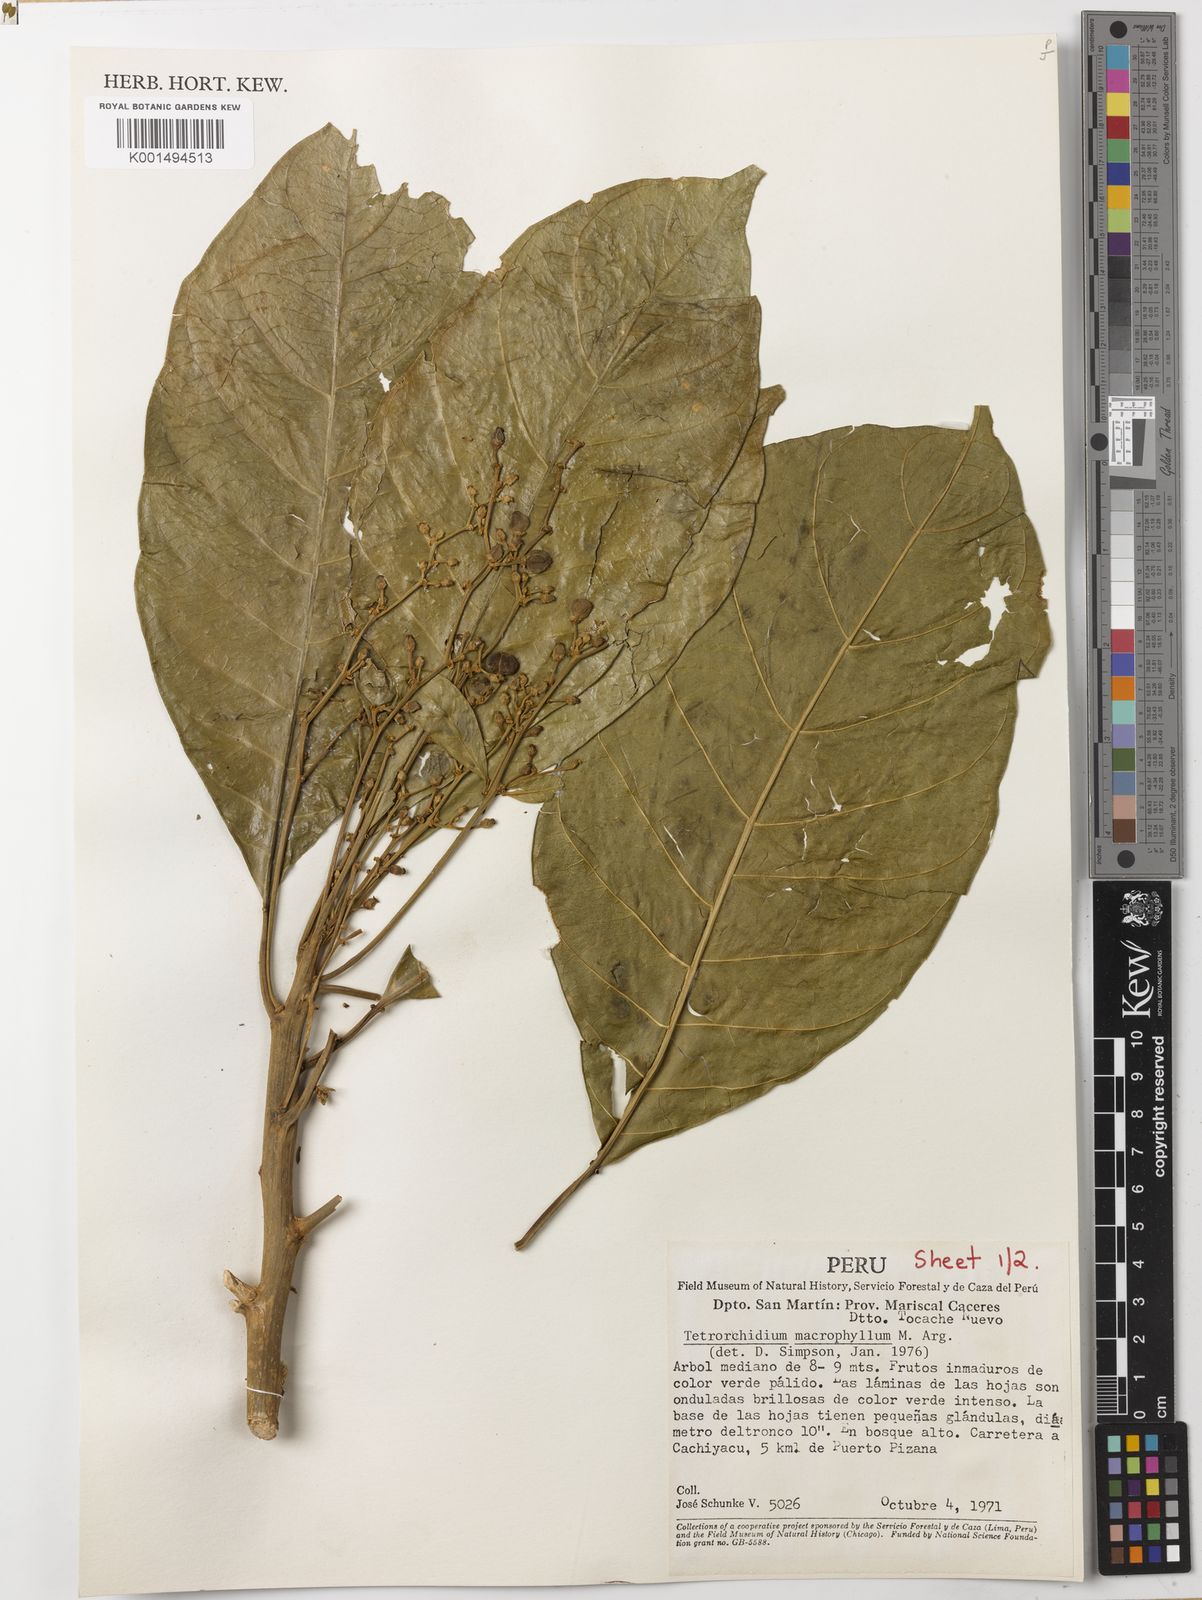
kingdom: Plantae
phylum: Tracheophyta
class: Magnoliopsida
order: Malpighiales
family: Euphorbiaceae
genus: Tetrorchidium
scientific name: Tetrorchidium macrophyllum
